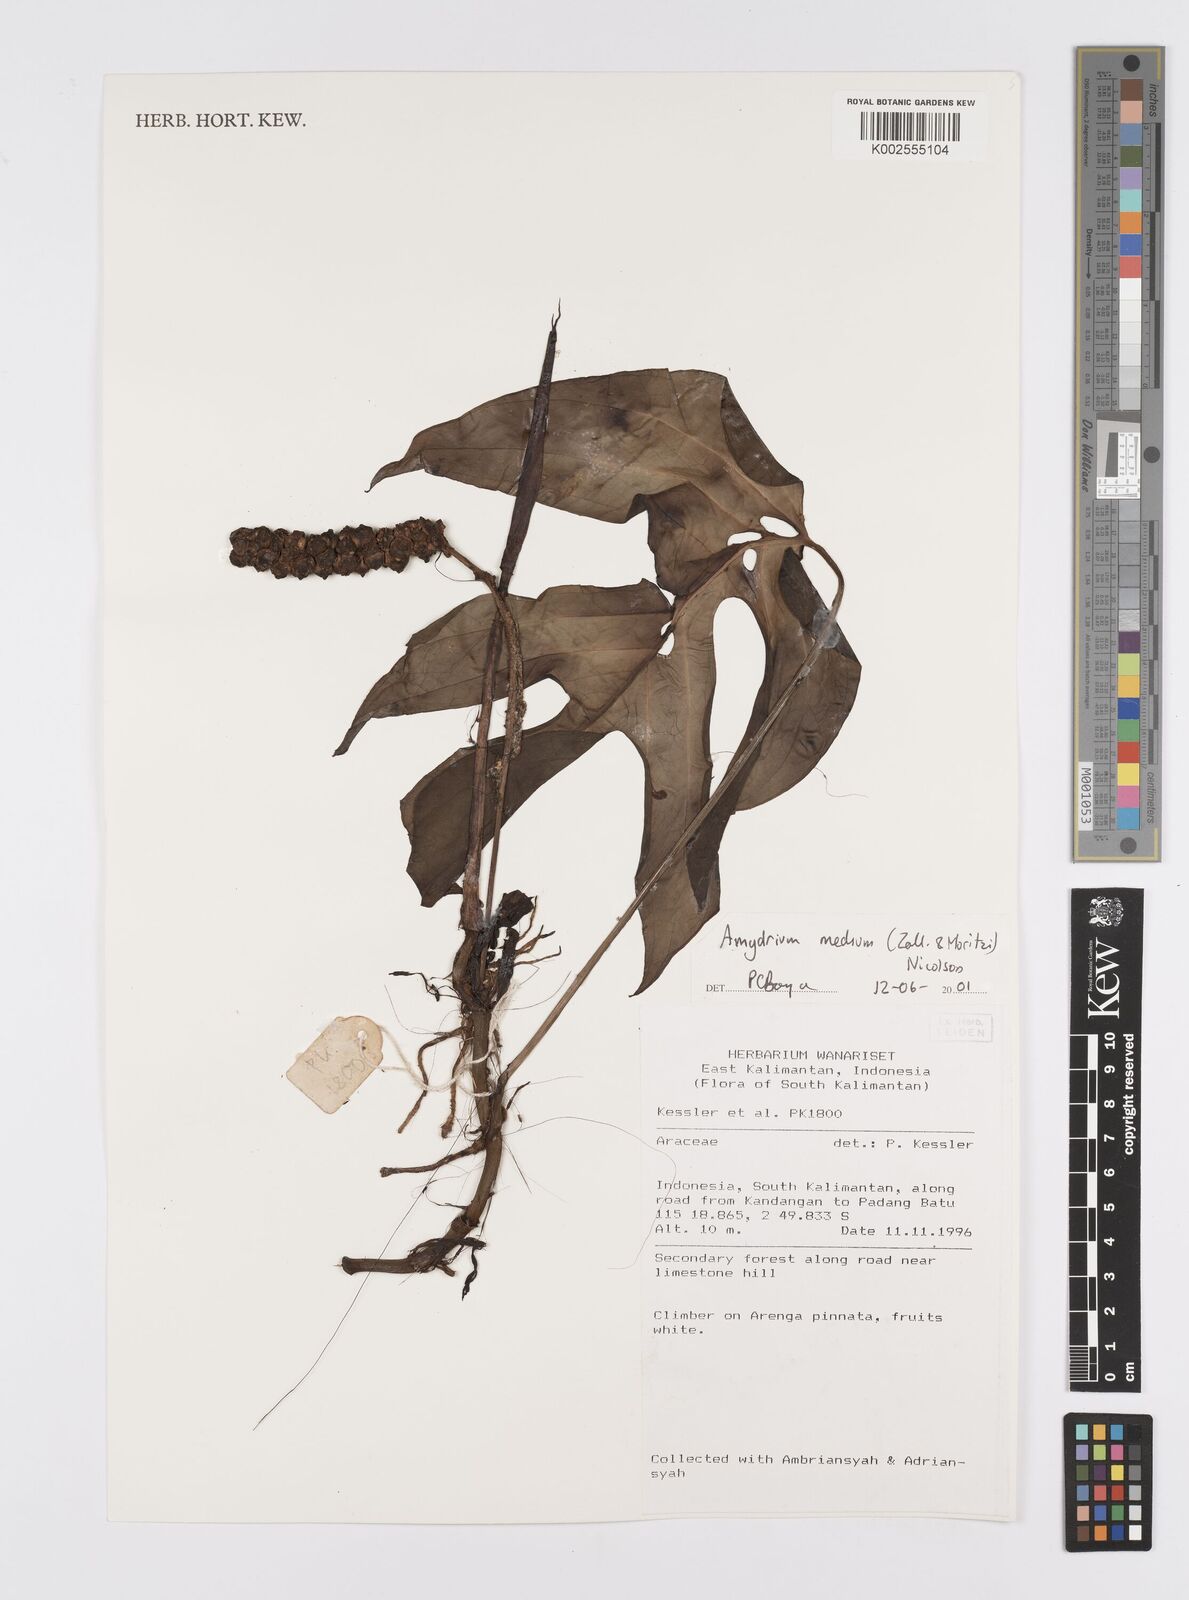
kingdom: Plantae
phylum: Tracheophyta
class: Liliopsida
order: Alismatales
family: Araceae
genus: Amydrium
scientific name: Amydrium medium
